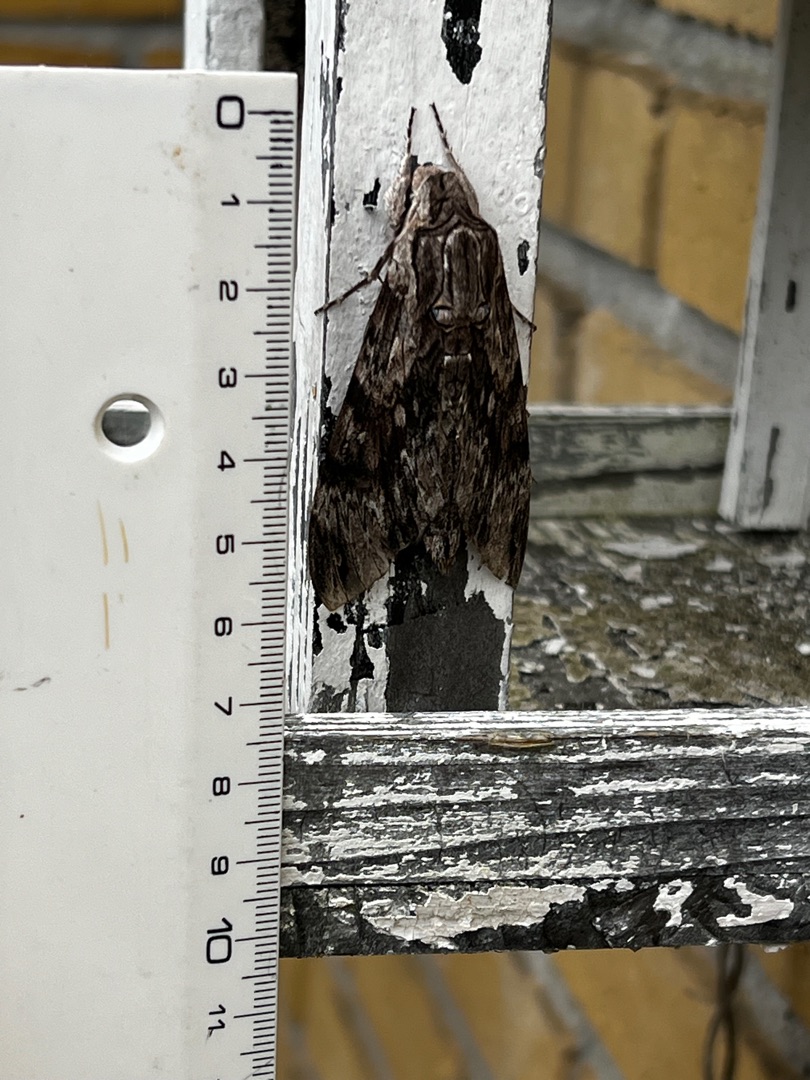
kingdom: Animalia
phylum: Arthropoda
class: Insecta
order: Lepidoptera
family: Sphingidae
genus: Agrius
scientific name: Agrius convolvuli
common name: Snerlesværmer
